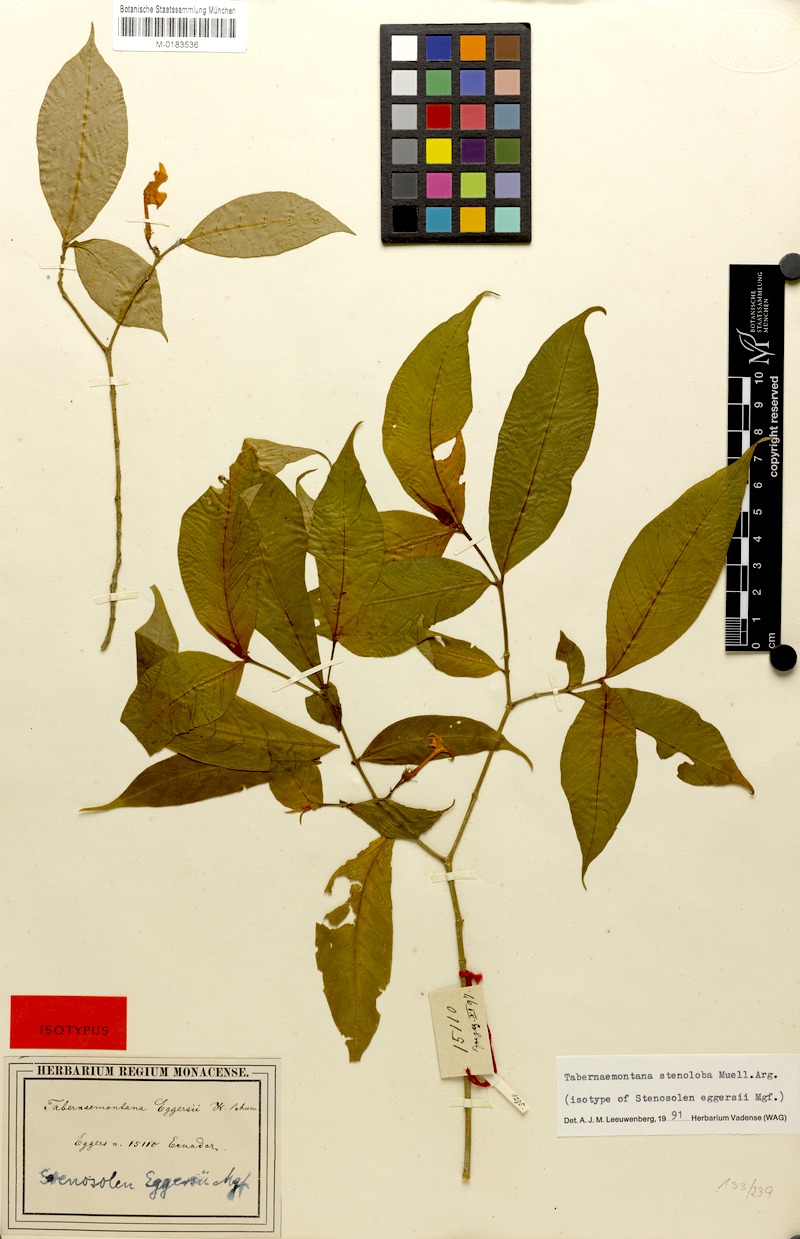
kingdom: Plantae
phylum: Tracheophyta
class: Magnoliopsida
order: Gentianales
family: Apocynaceae
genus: Tabernaemontana
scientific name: Tabernaemontana heterophylla
